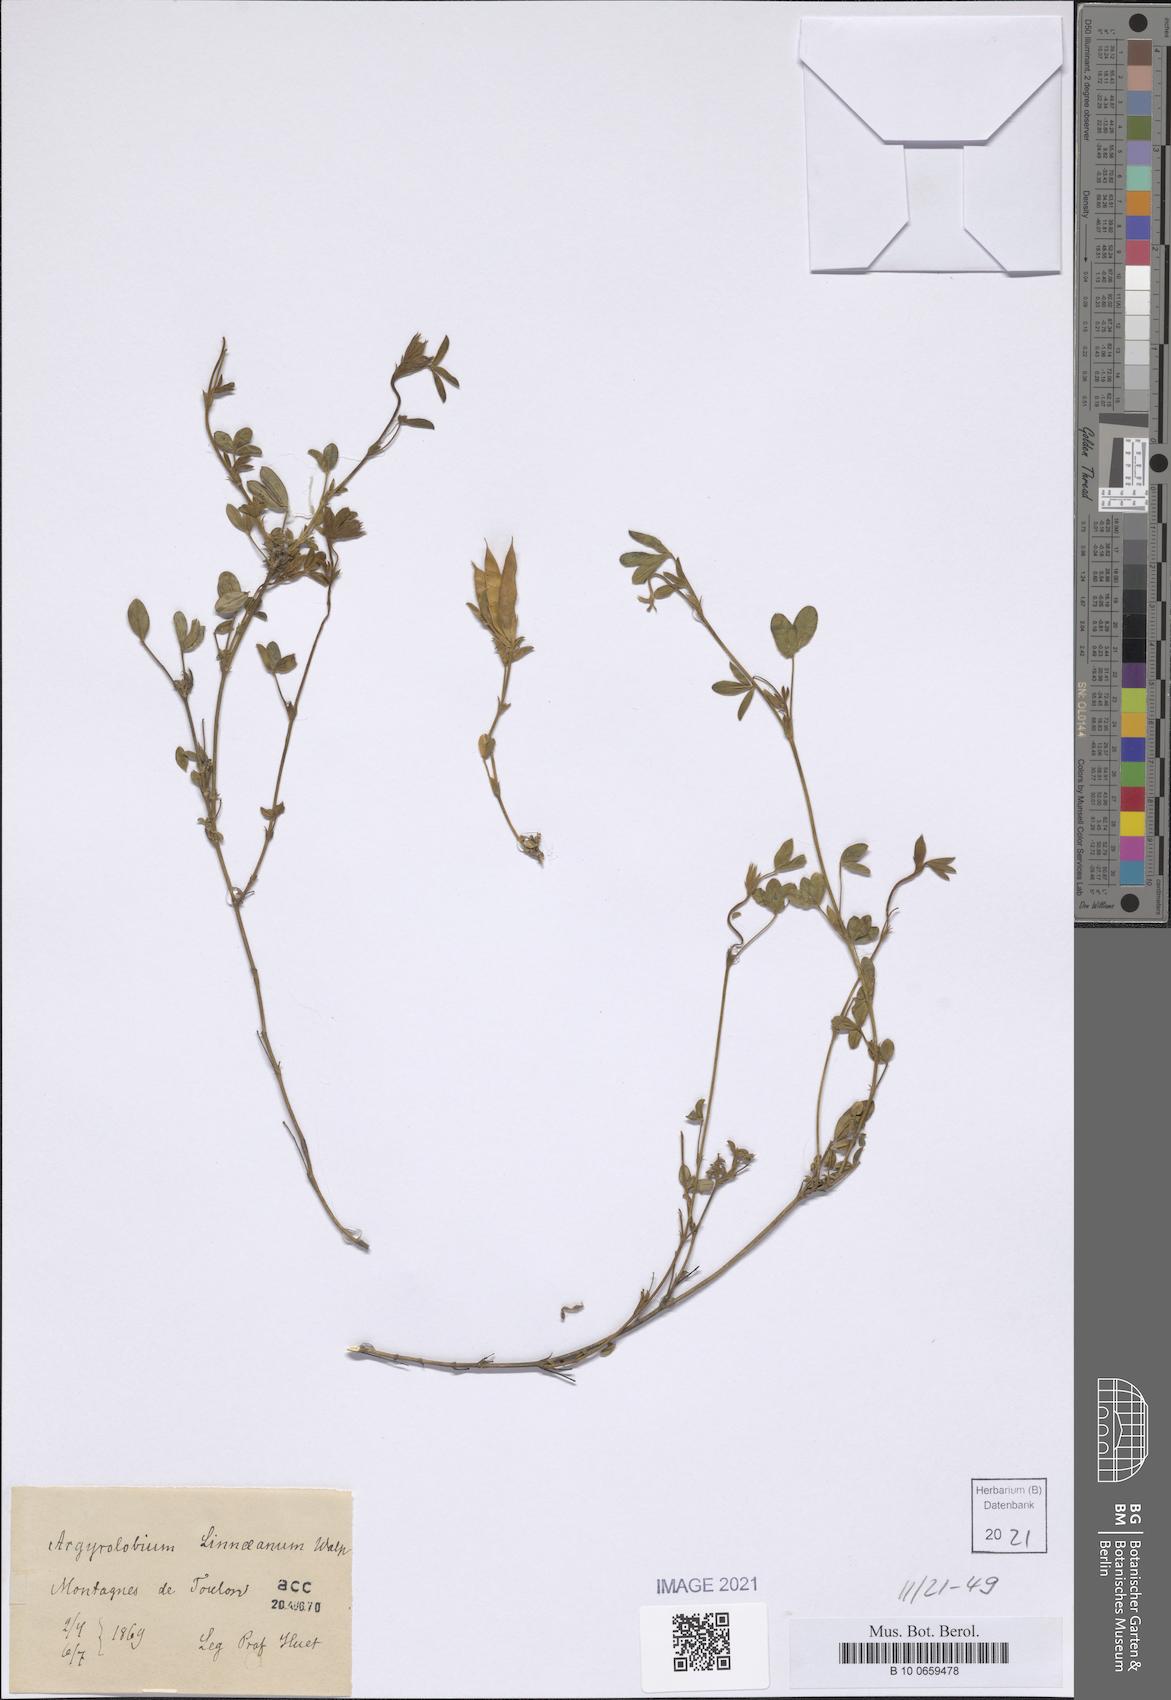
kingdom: Plantae
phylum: Tracheophyta
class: Magnoliopsida
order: Fabales
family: Fabaceae
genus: Argyrolobium
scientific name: Argyrolobium zanonii
